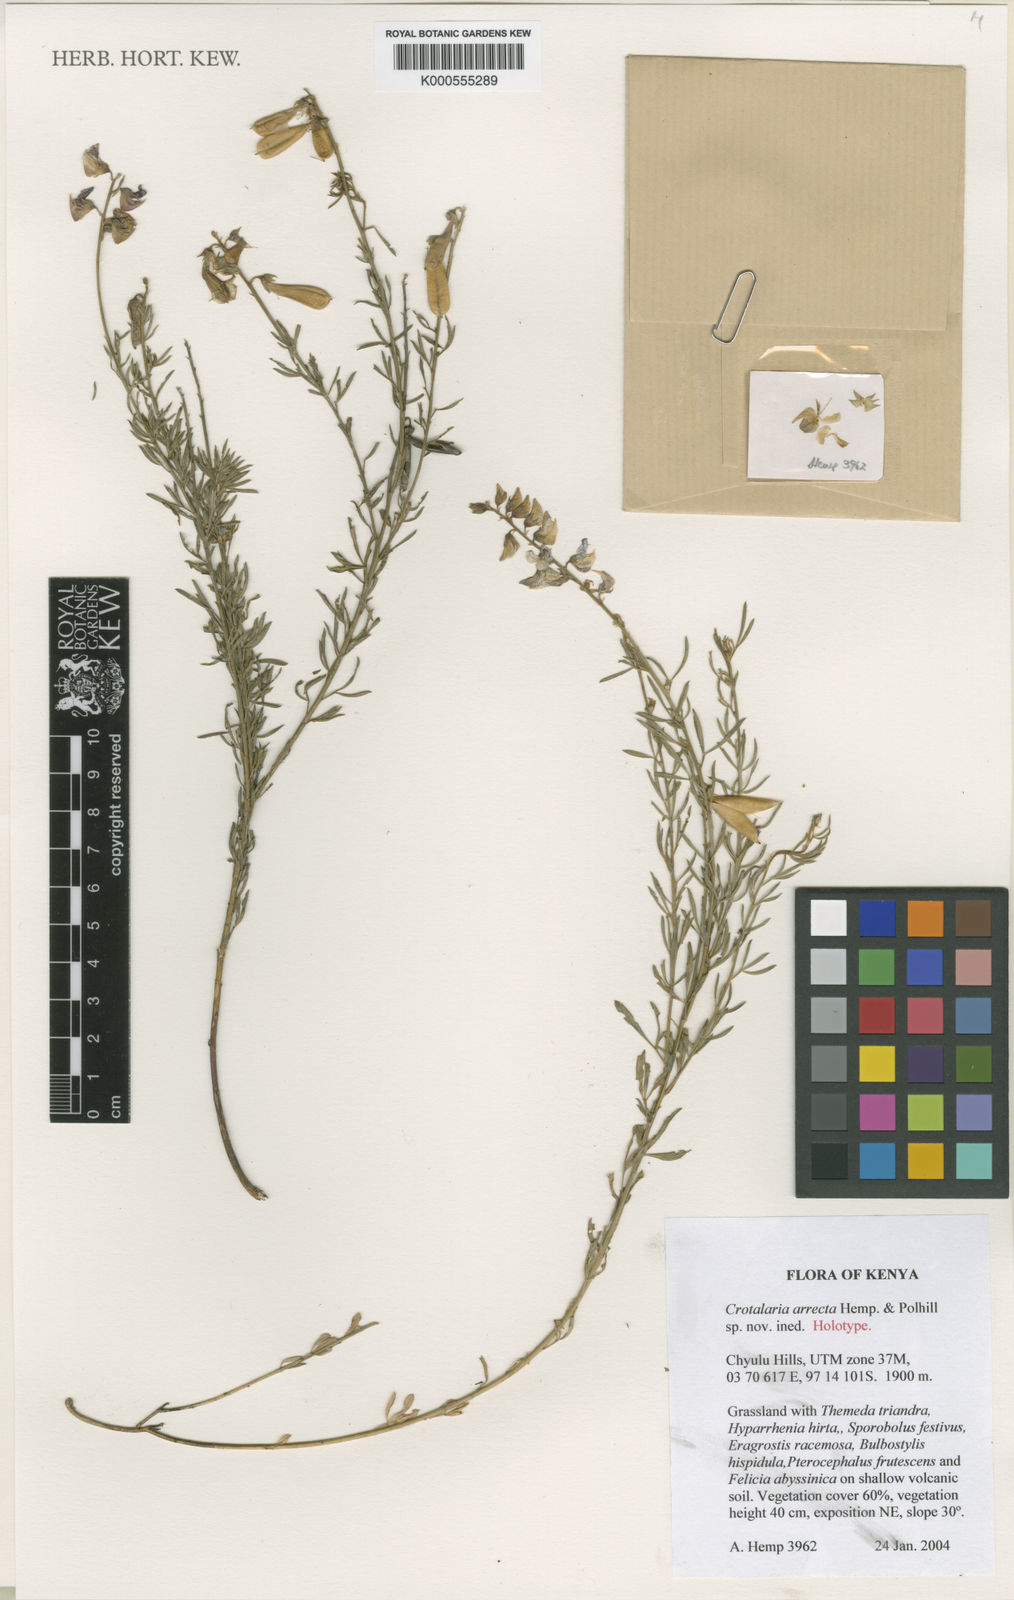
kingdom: Plantae
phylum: Tracheophyta
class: Magnoliopsida
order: Fabales
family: Fabaceae
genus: Crotalaria
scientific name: Crotalaria arrecta
